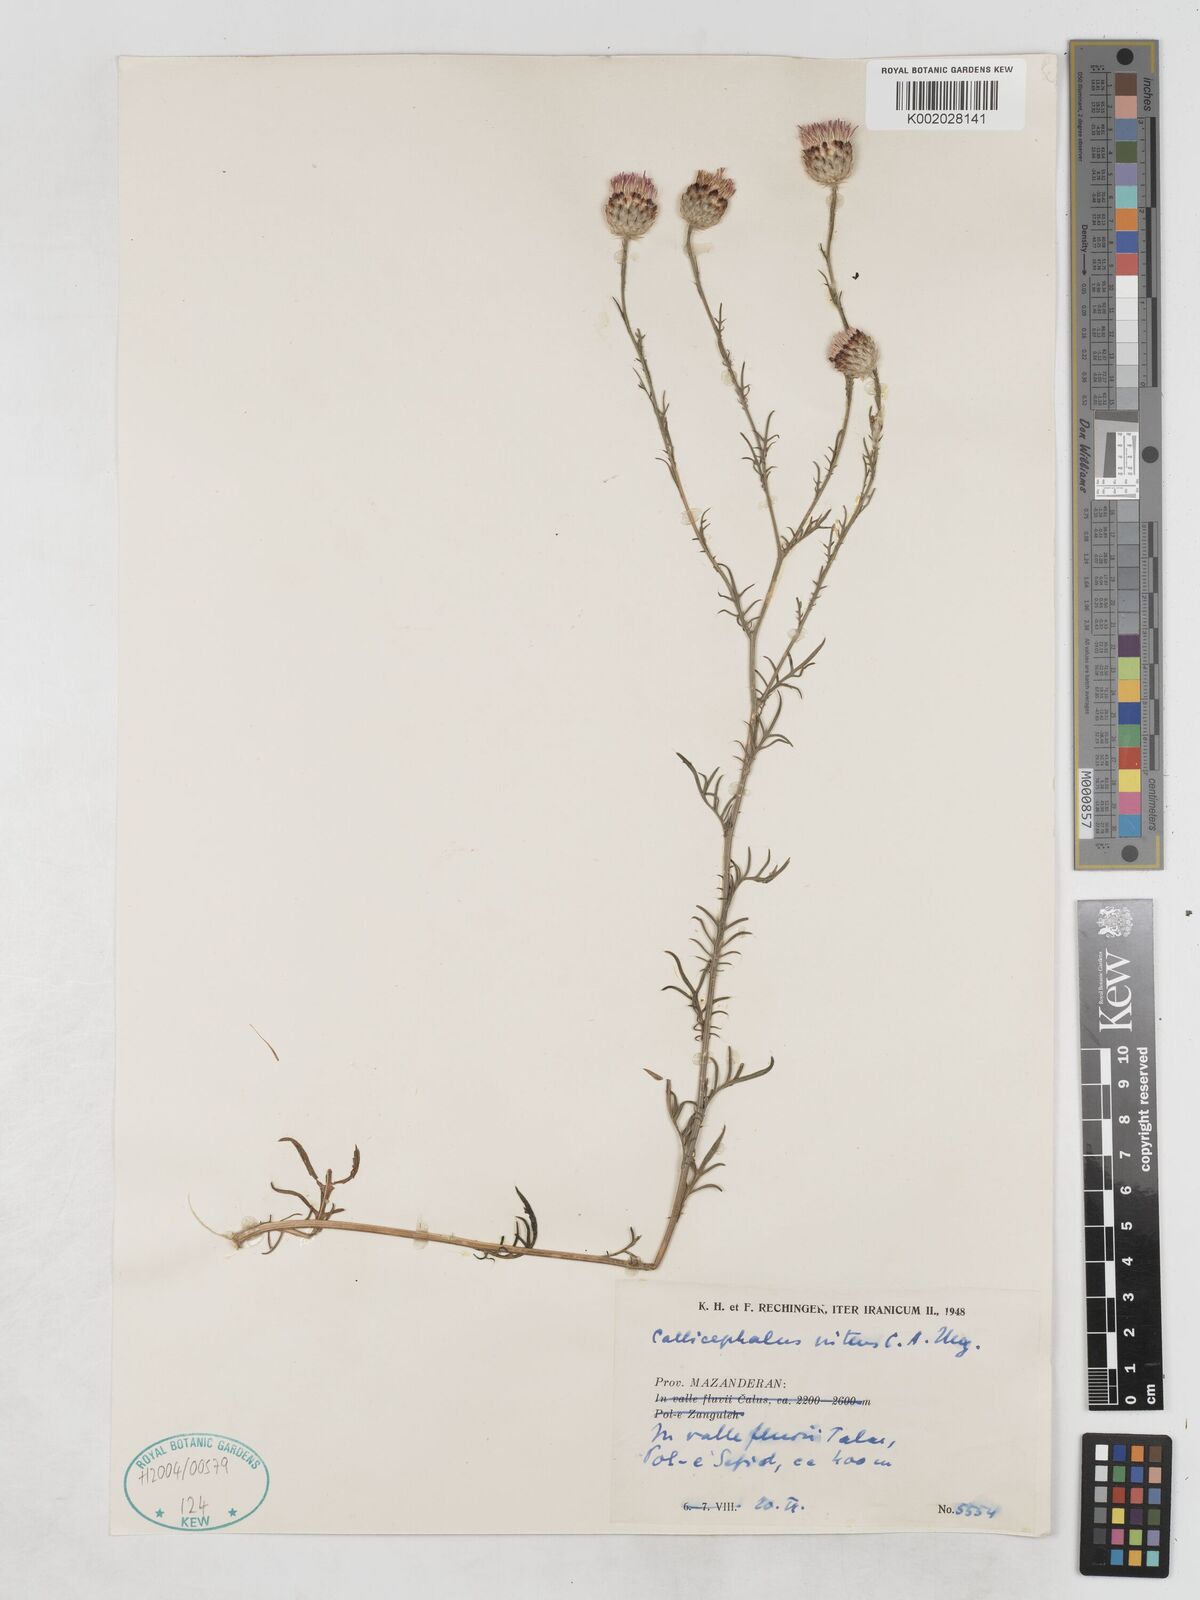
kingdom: Plantae
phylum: Tracheophyta
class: Magnoliopsida
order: Asterales
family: Asteraceae
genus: Callicephalus
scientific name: Callicephalus nitens
